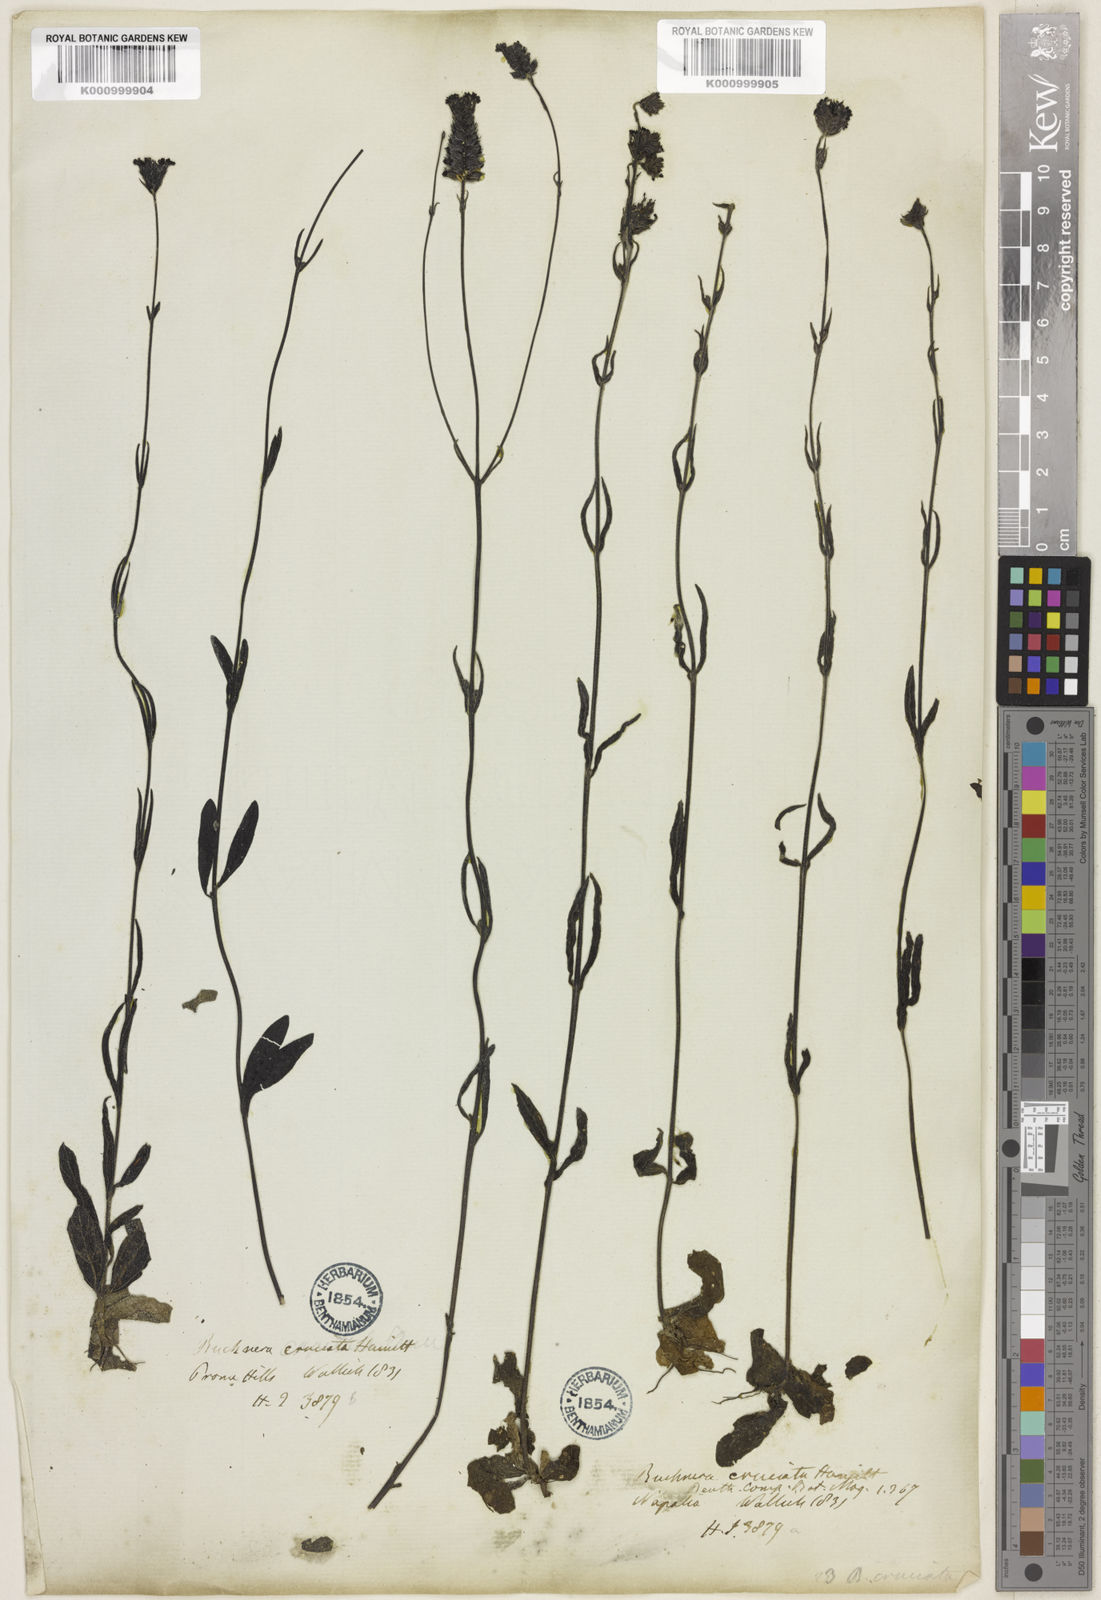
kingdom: Plantae
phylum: Tracheophyta
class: Magnoliopsida
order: Lamiales
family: Orobanchaceae
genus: Buchnera
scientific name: Buchnera cruciata
